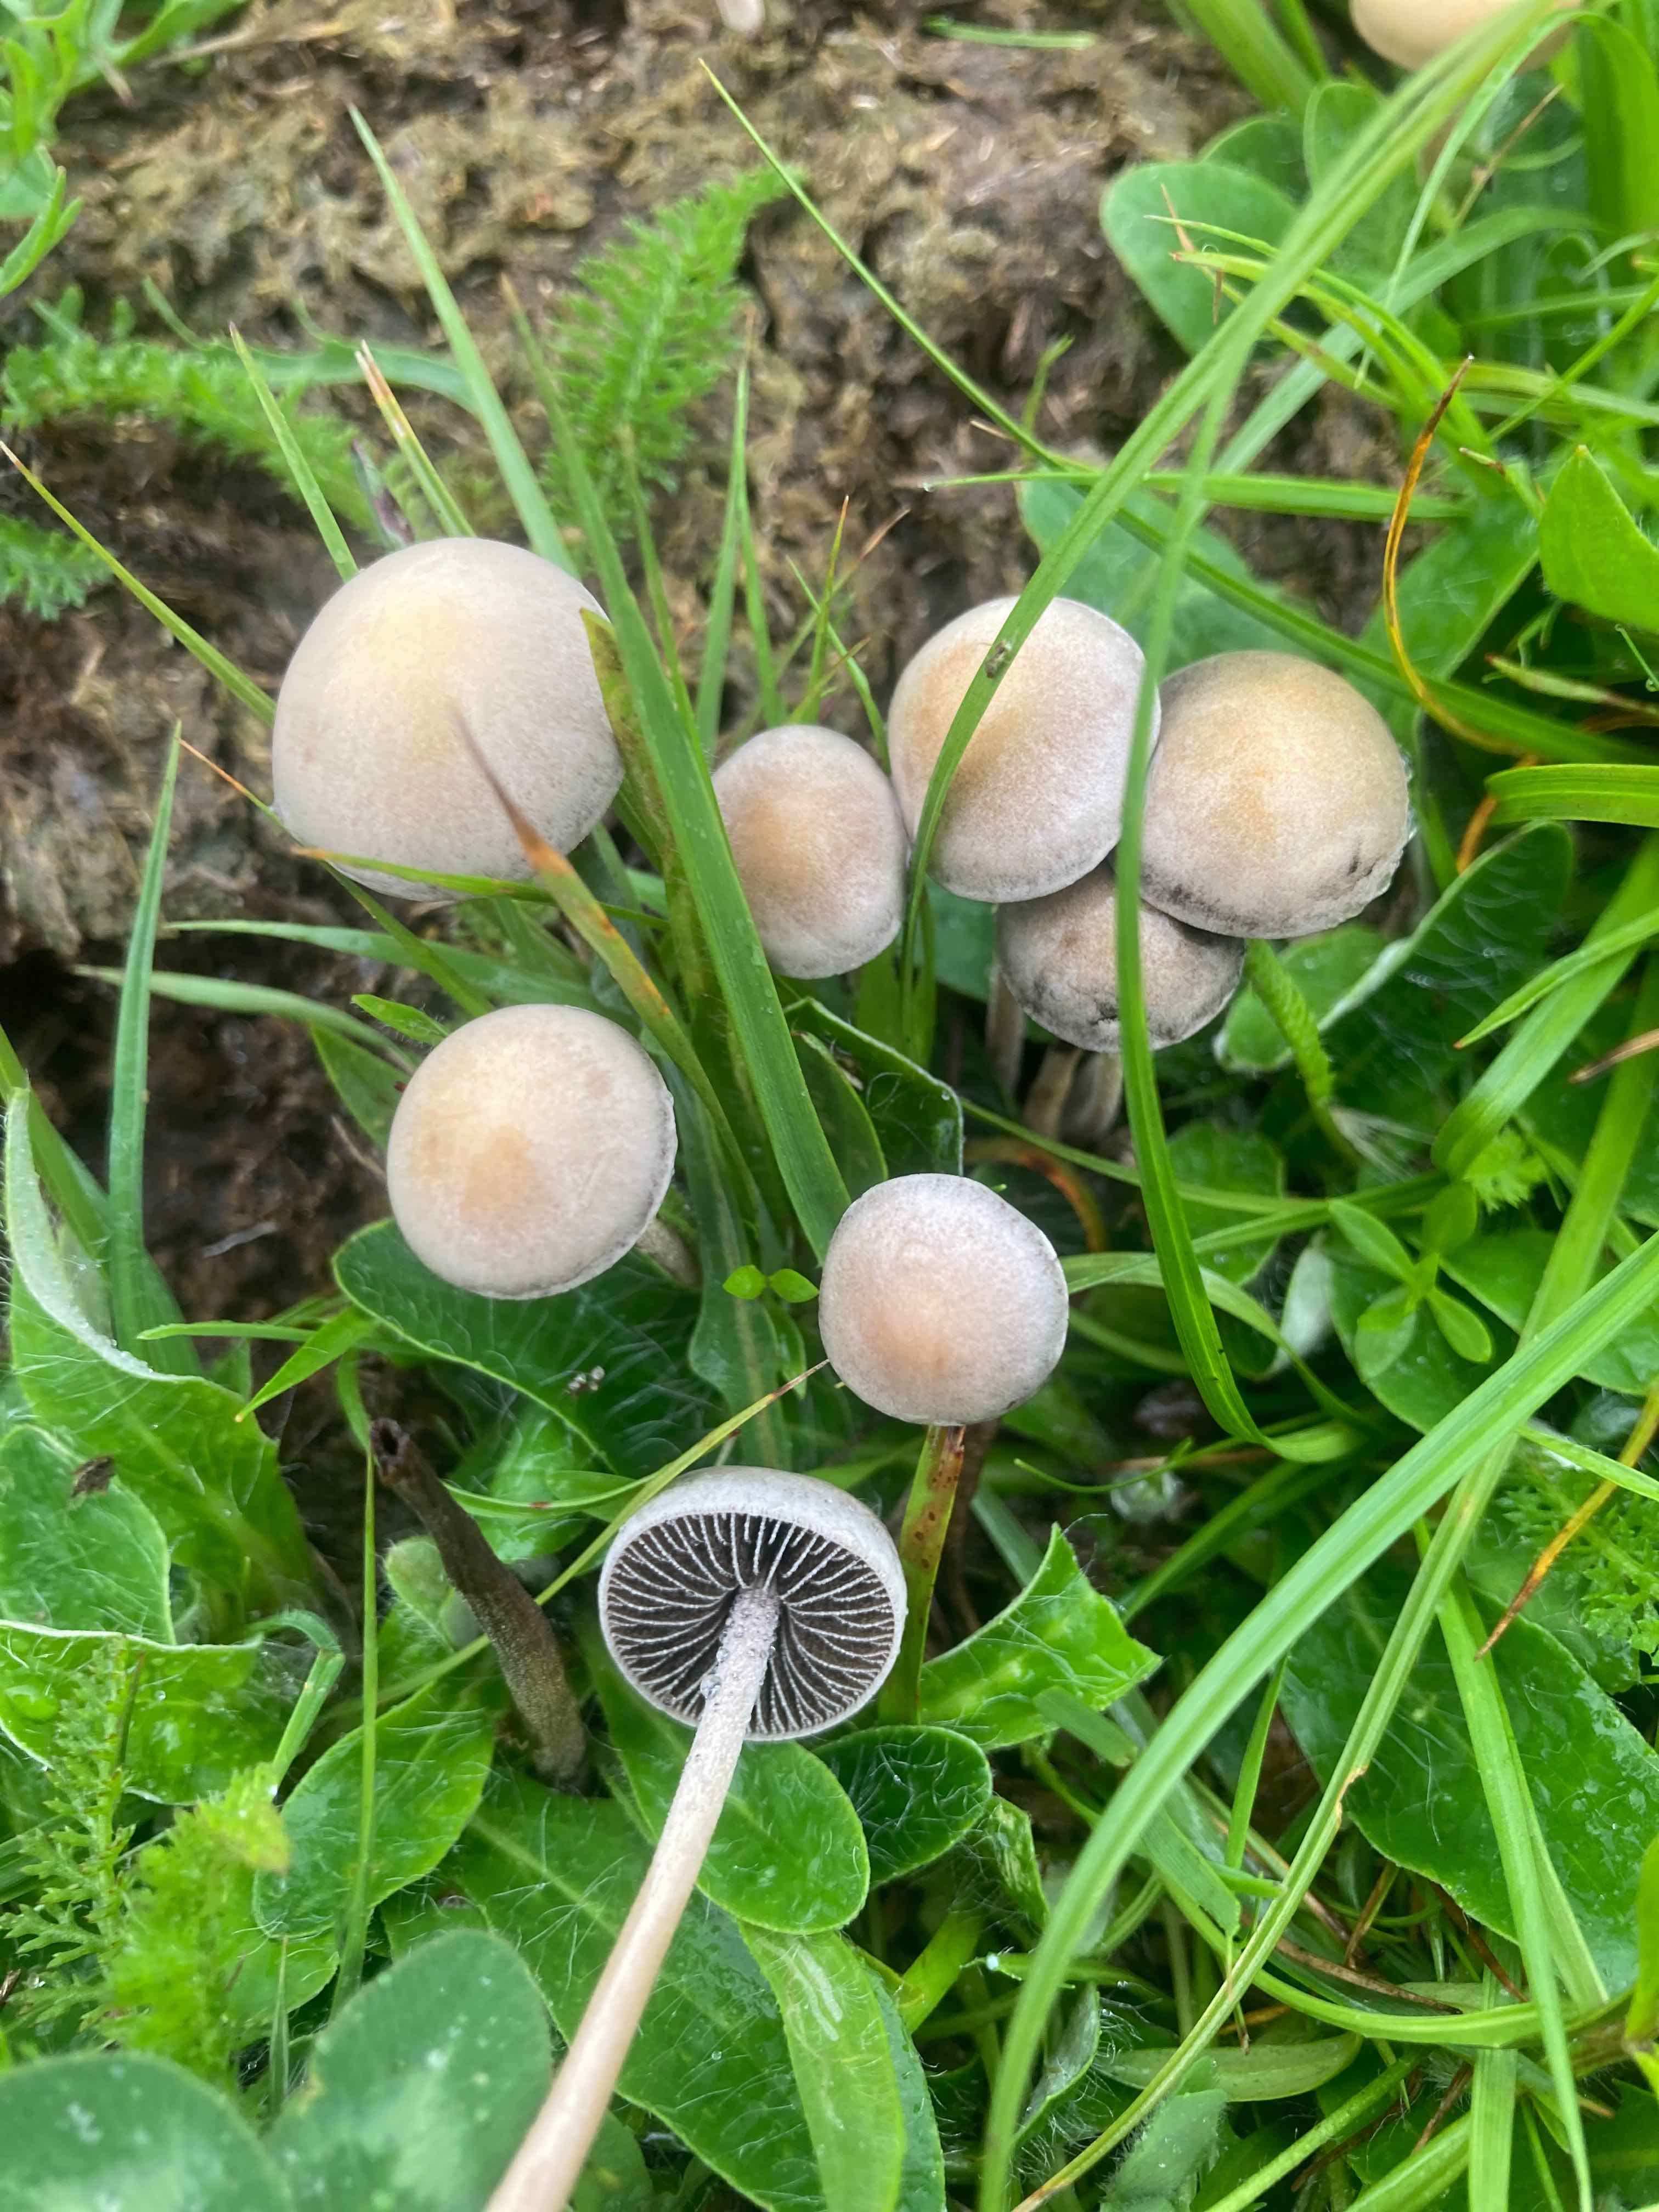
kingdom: Fungi
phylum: Basidiomycota
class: Agaricomycetes
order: Agaricales
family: Bolbitiaceae
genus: Panaeolus
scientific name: Panaeolus subfirmus
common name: fælled-glanshat
